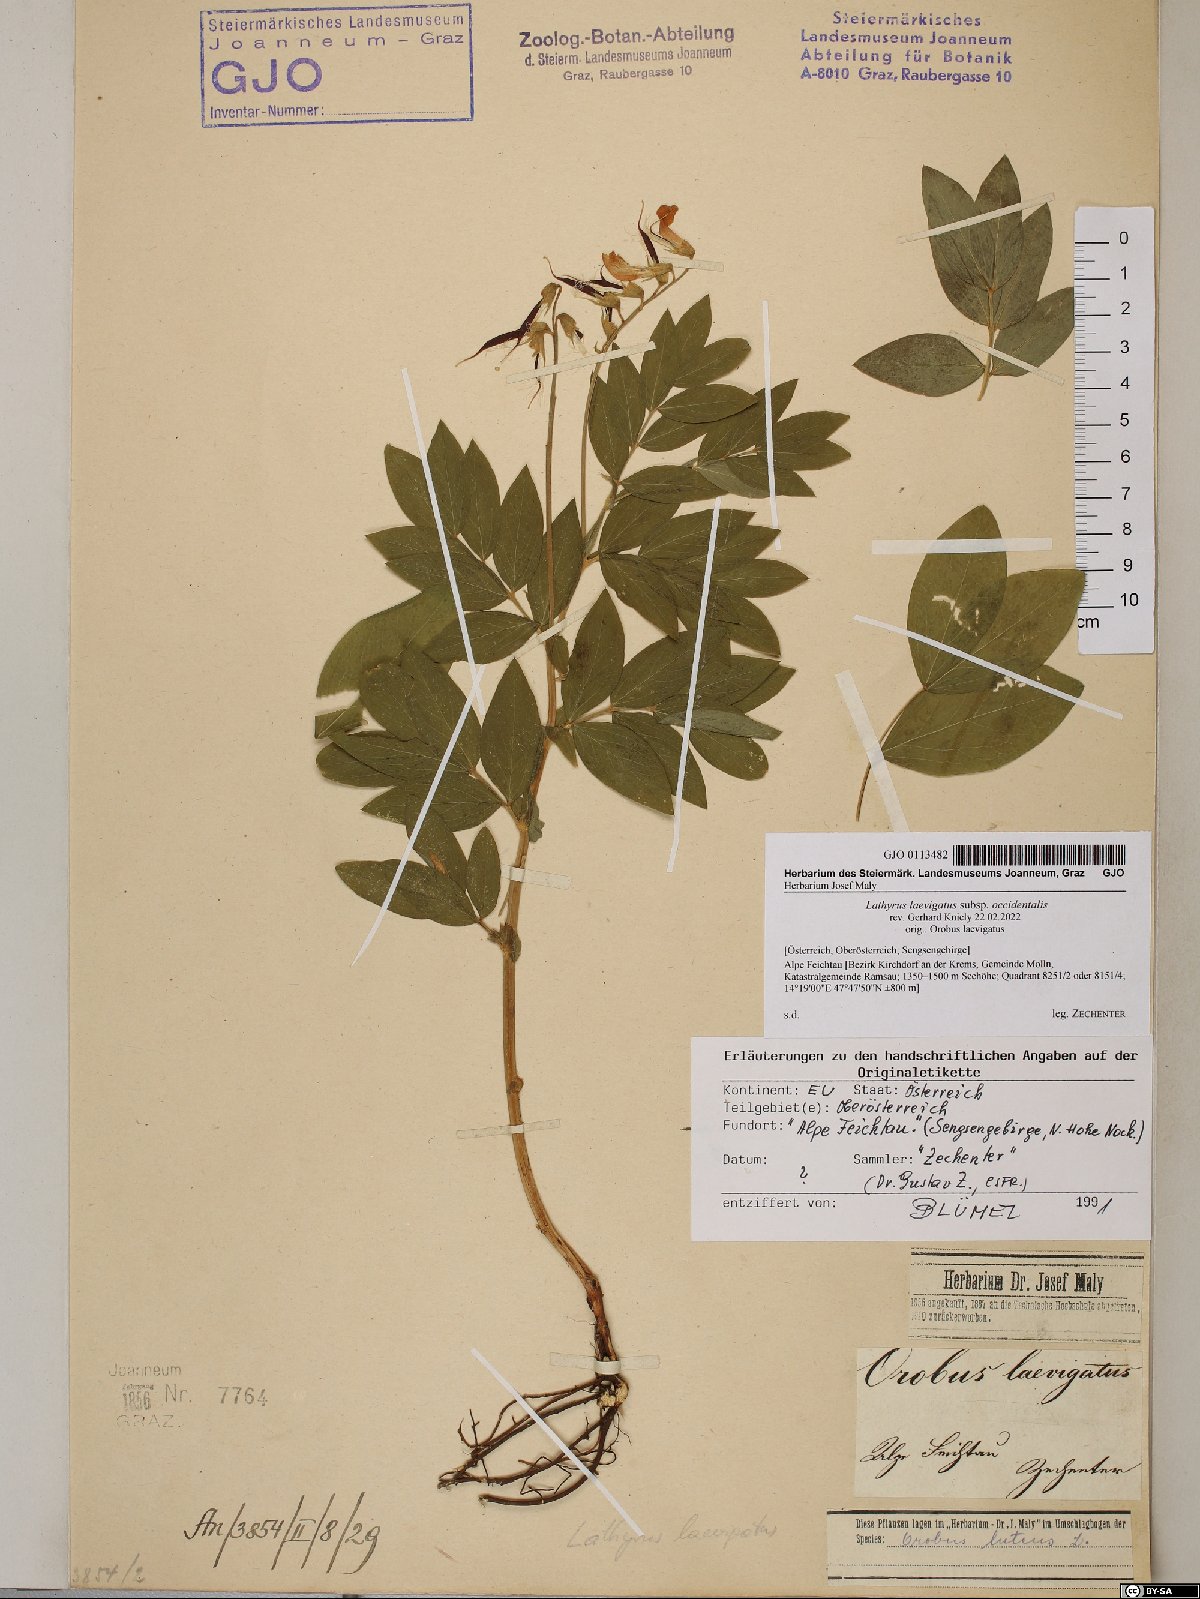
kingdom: Plantae
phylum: Tracheophyta
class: Magnoliopsida
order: Fabales
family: Fabaceae
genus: Lathyrus
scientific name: Lathyrus laevigatus
